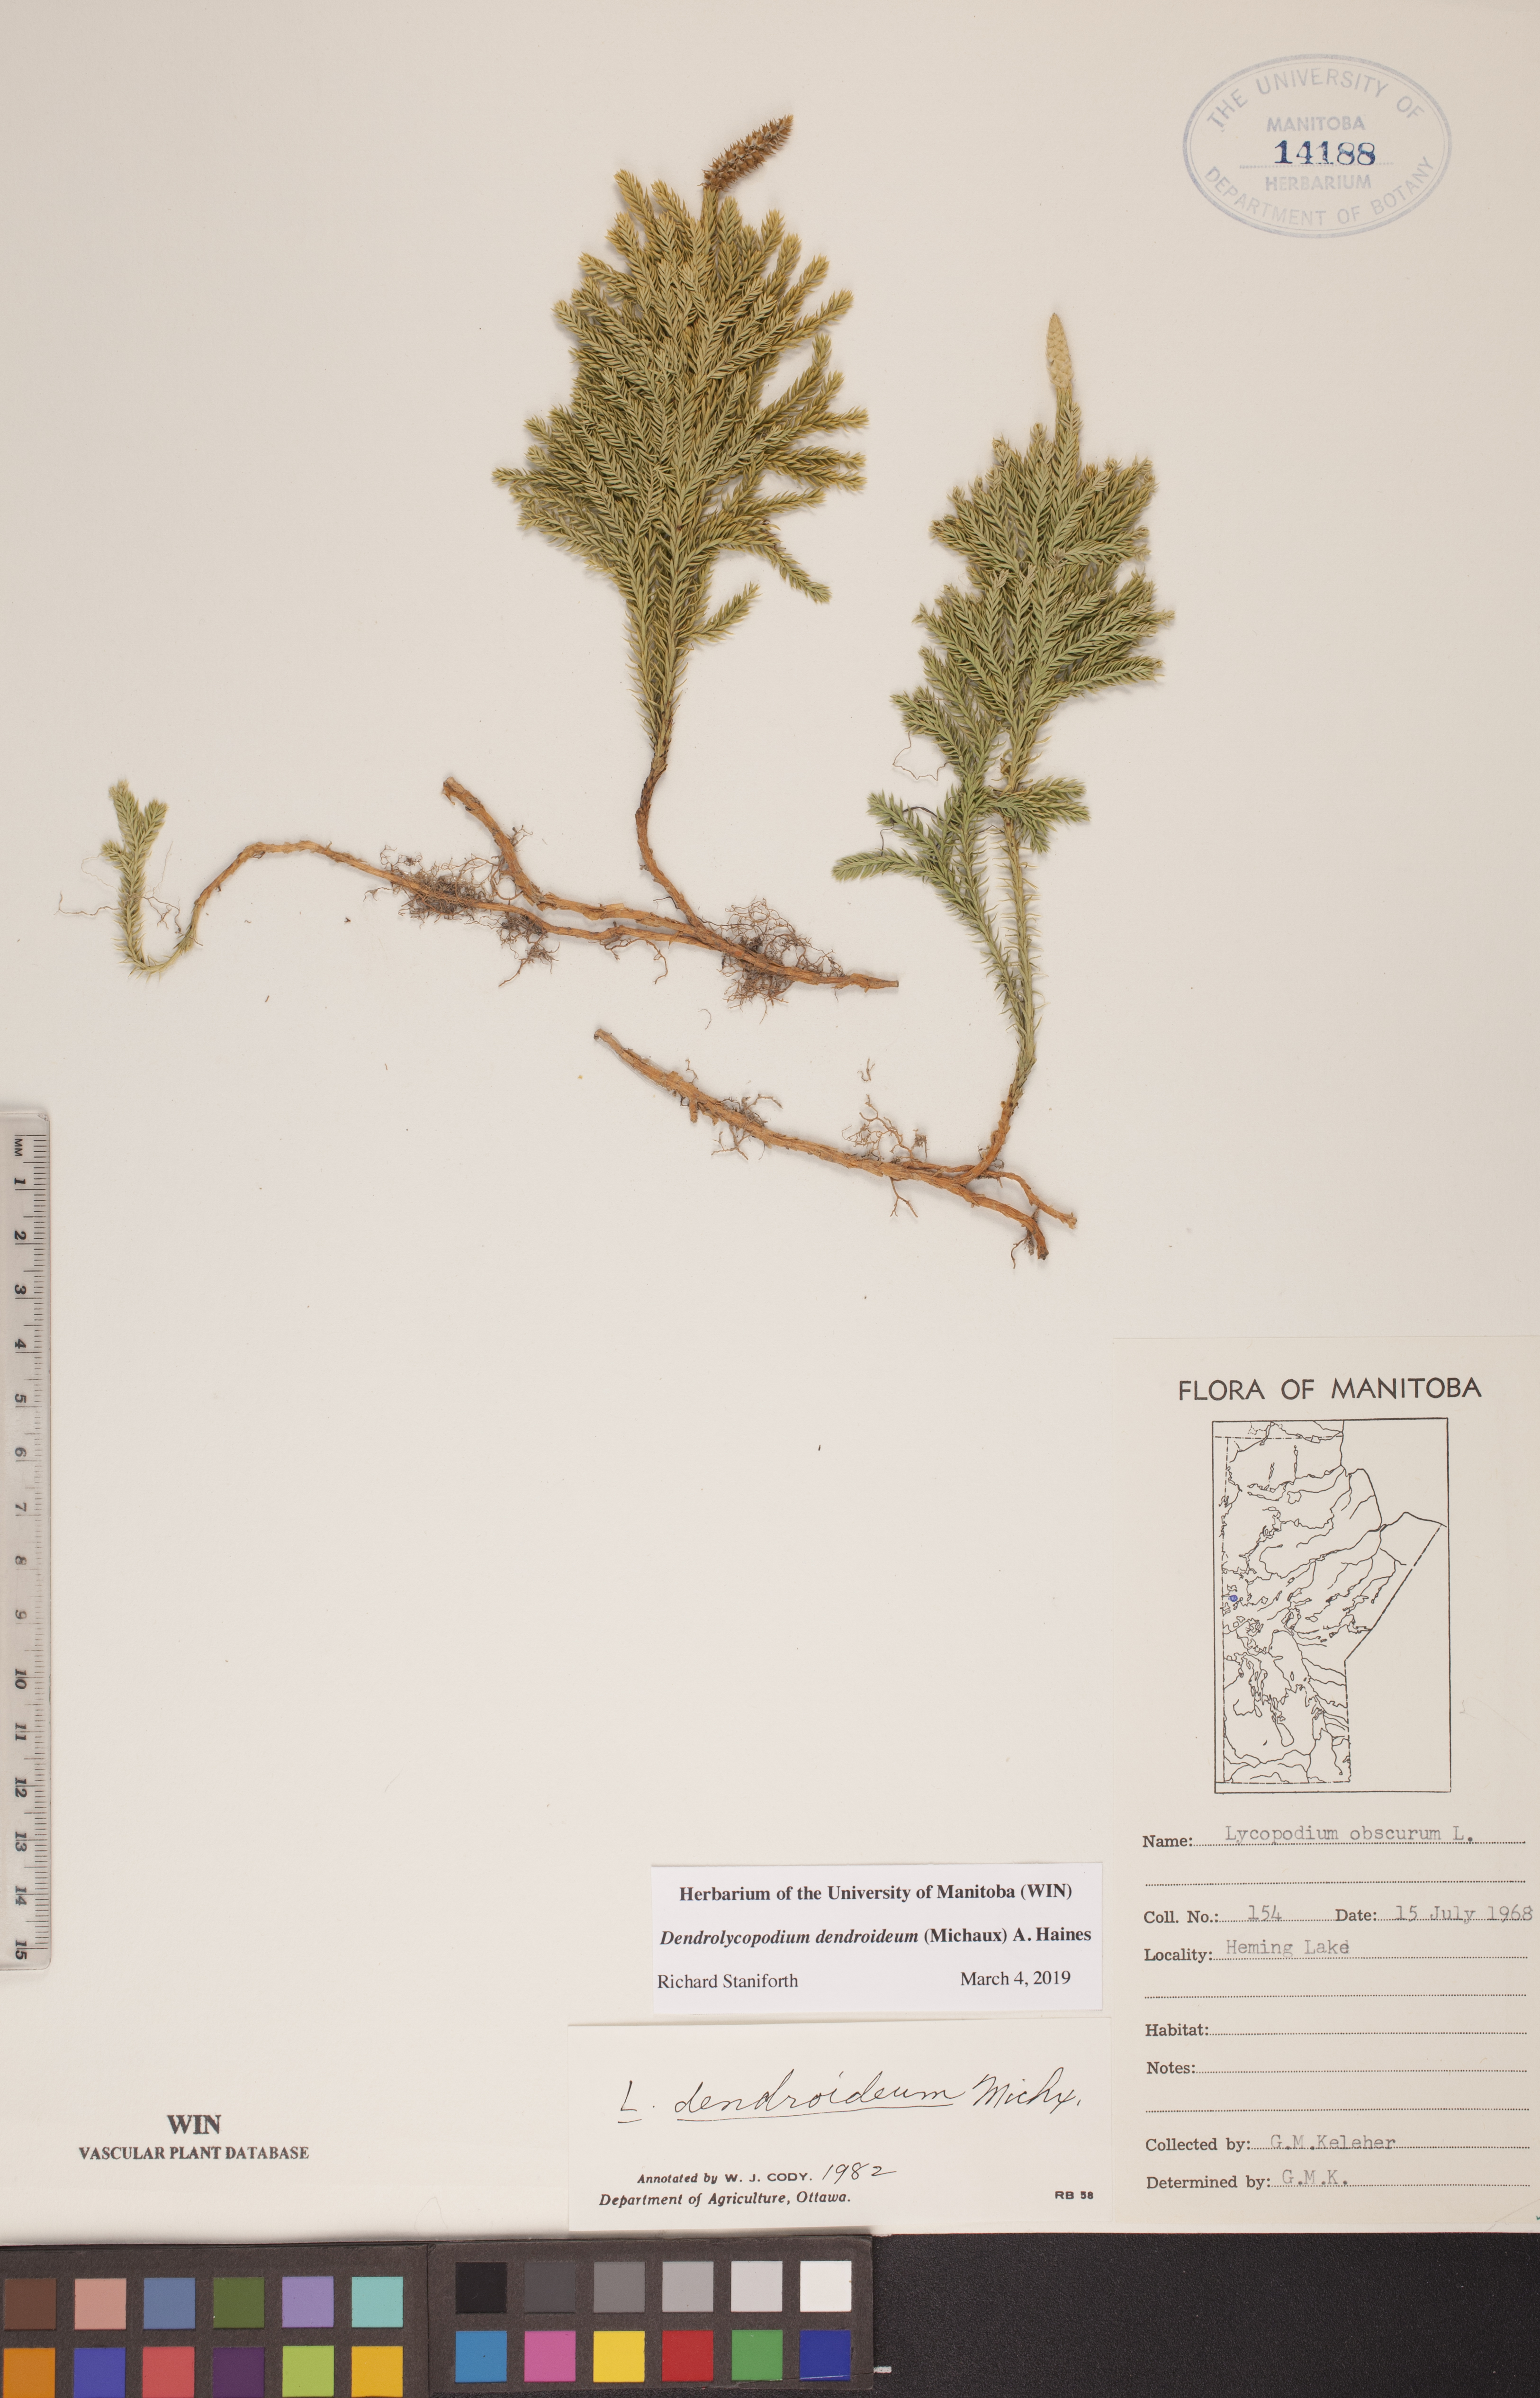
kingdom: Plantae
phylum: Tracheophyta
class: Lycopodiopsida
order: Lycopodiales
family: Lycopodiaceae
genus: Dendrolycopodium
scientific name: Dendrolycopodium dendroideum
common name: Northern tree-clubmoss
